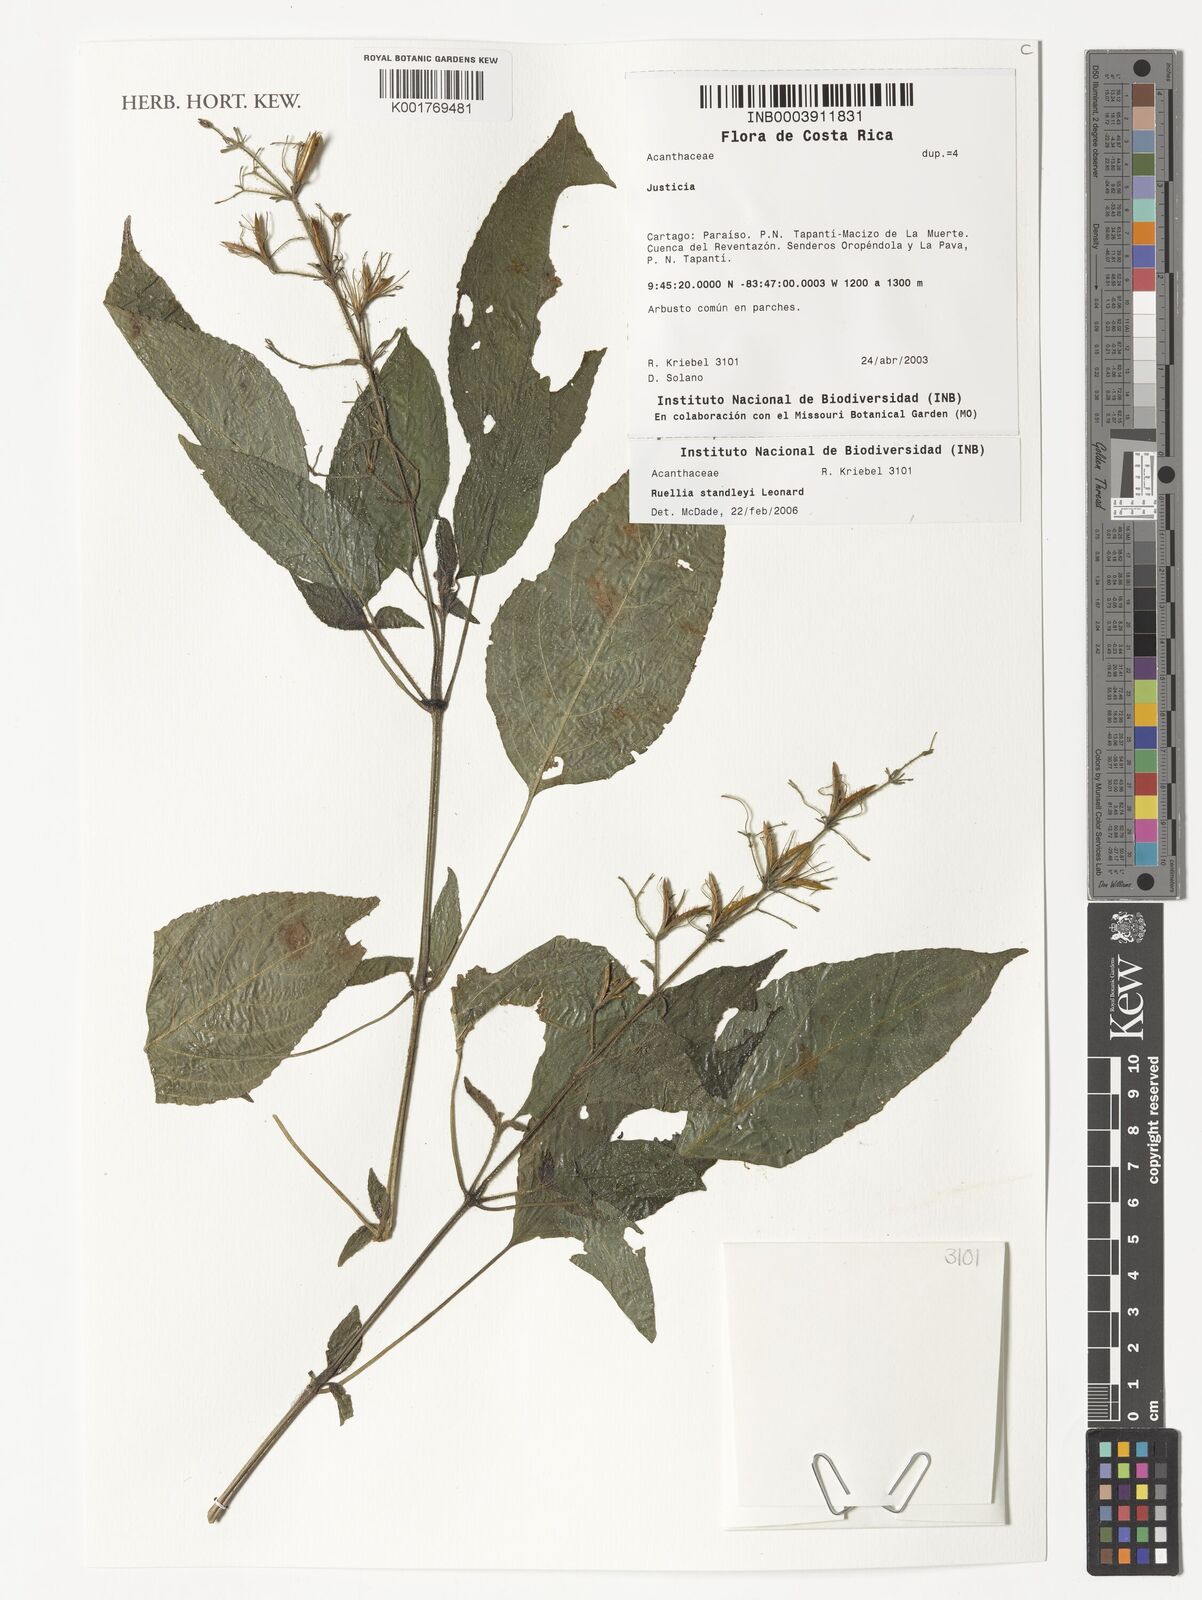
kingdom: Plantae
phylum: Tracheophyta
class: Magnoliopsida
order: Lamiales
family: Acanthaceae
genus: Ruellia
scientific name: Ruellia standleyi
